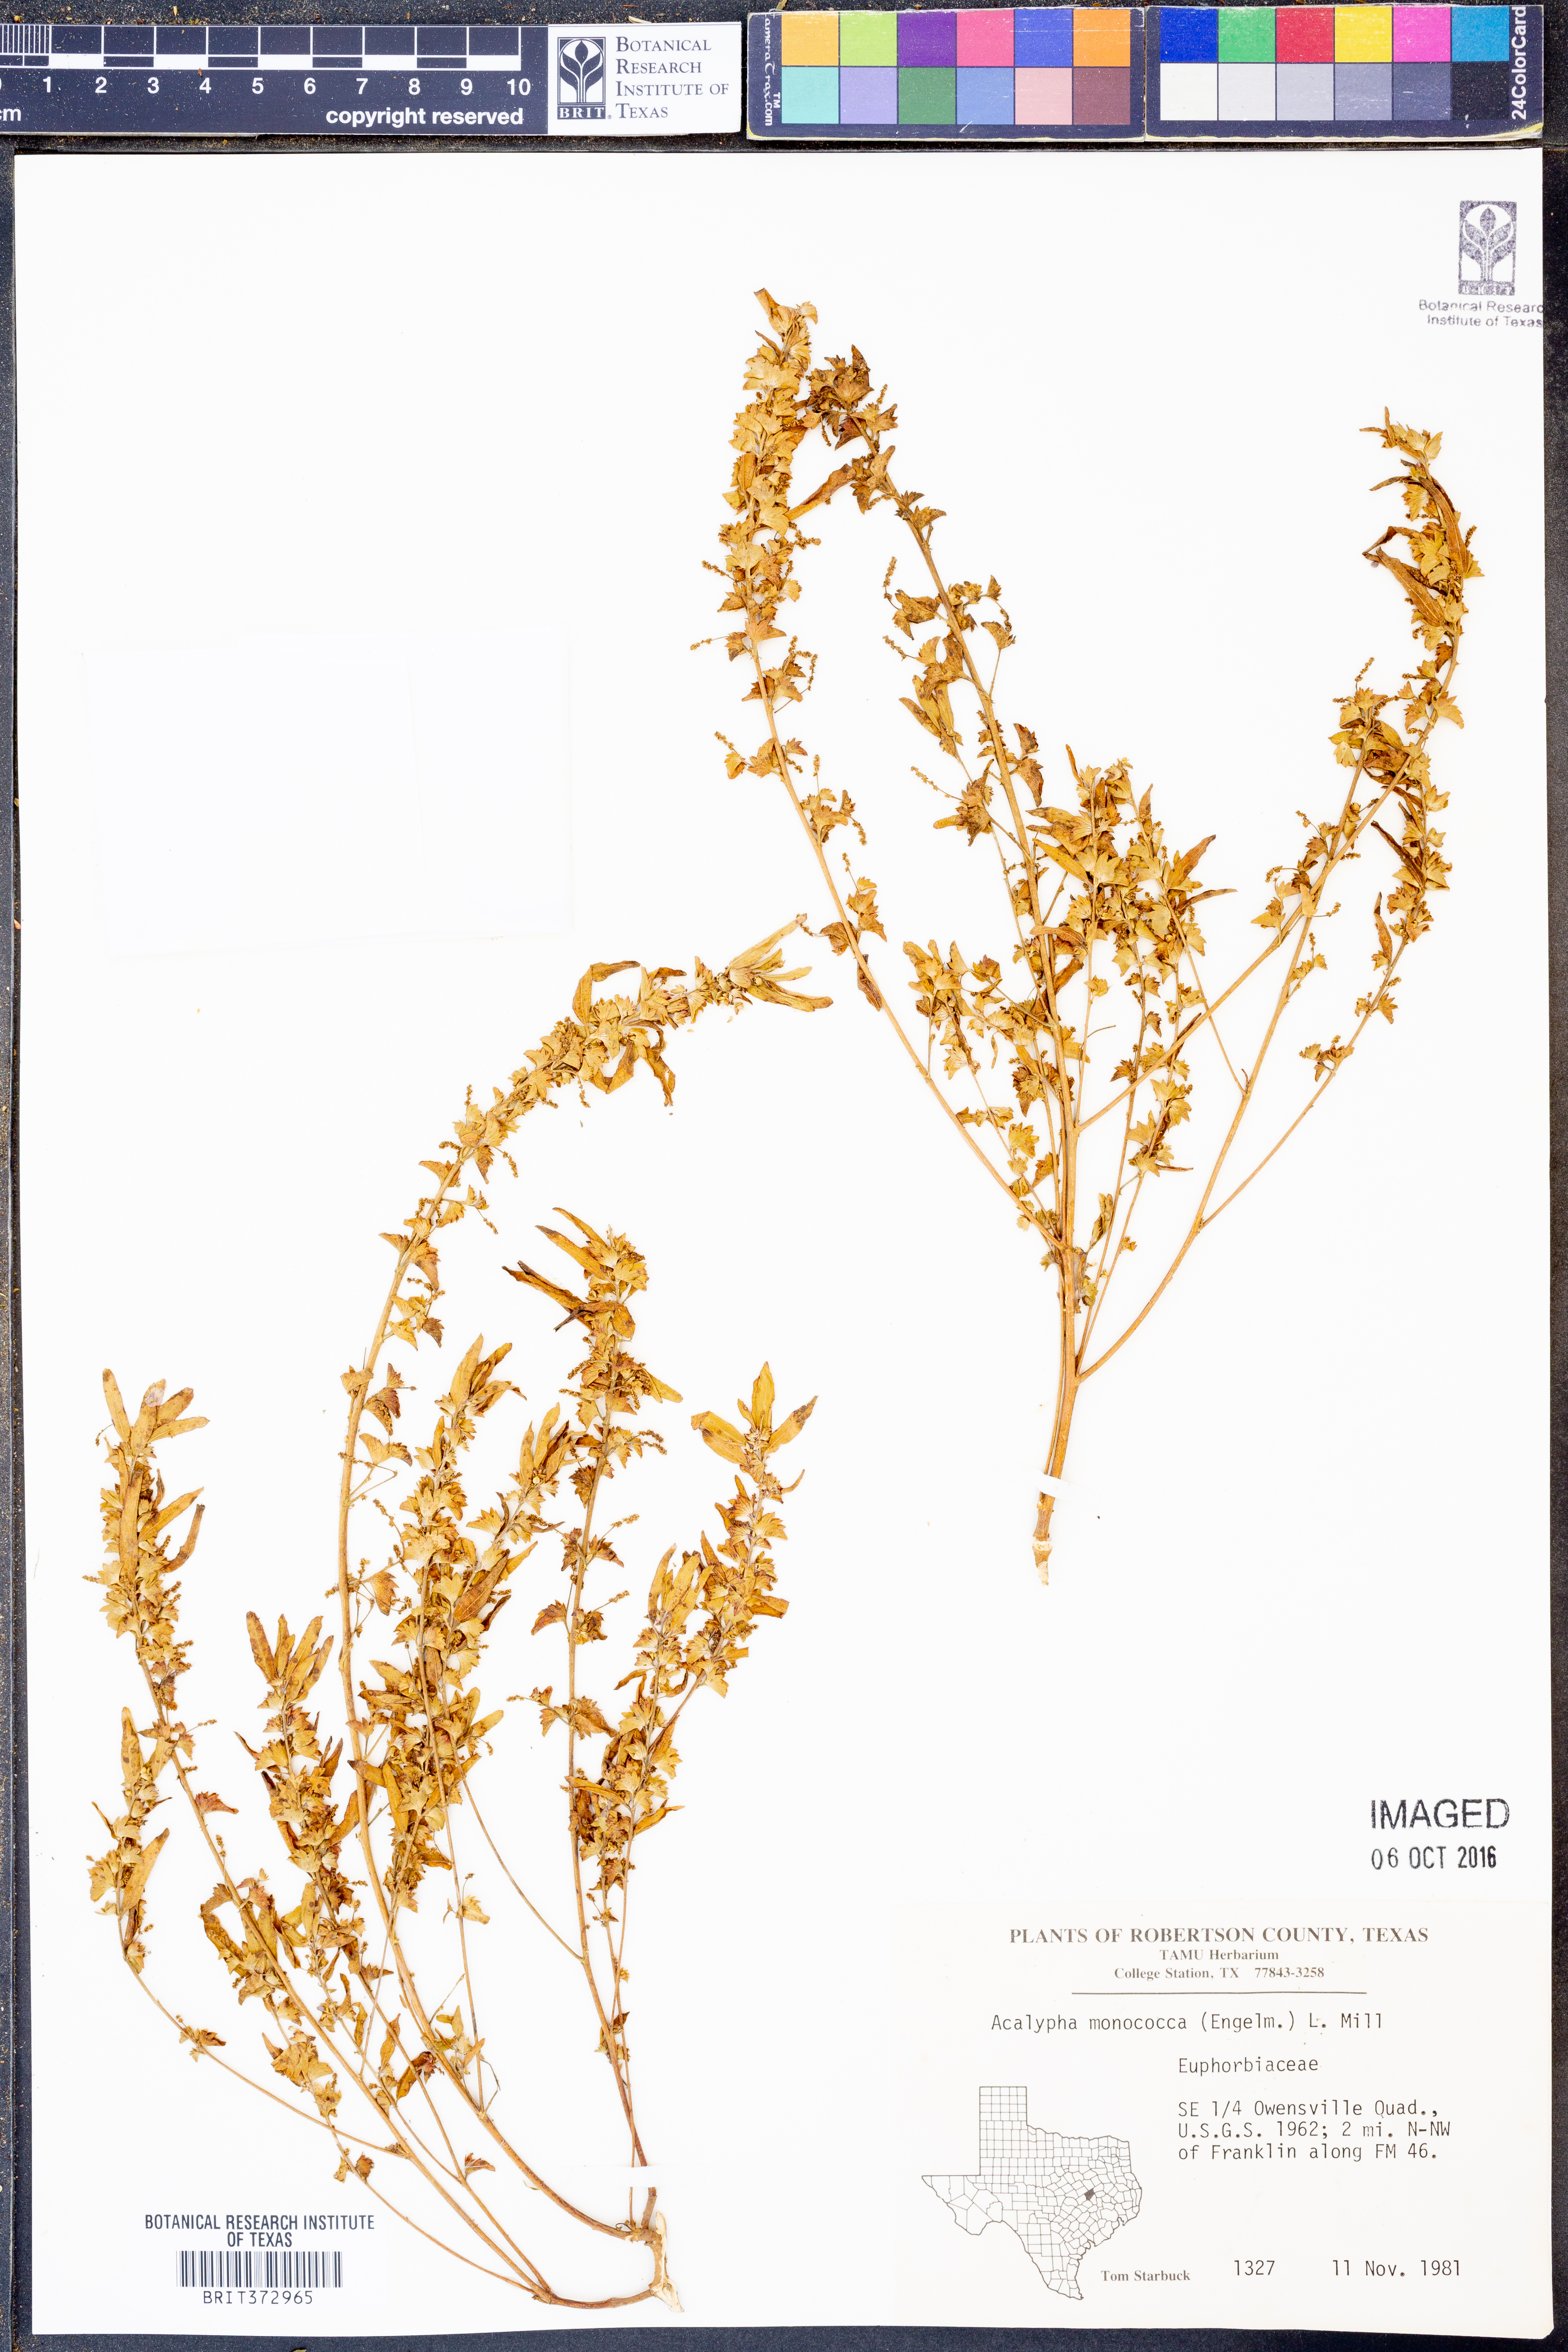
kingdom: Plantae
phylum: Tracheophyta
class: Magnoliopsida
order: Malpighiales
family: Euphorbiaceae
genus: Acalypha
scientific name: Acalypha monococca
